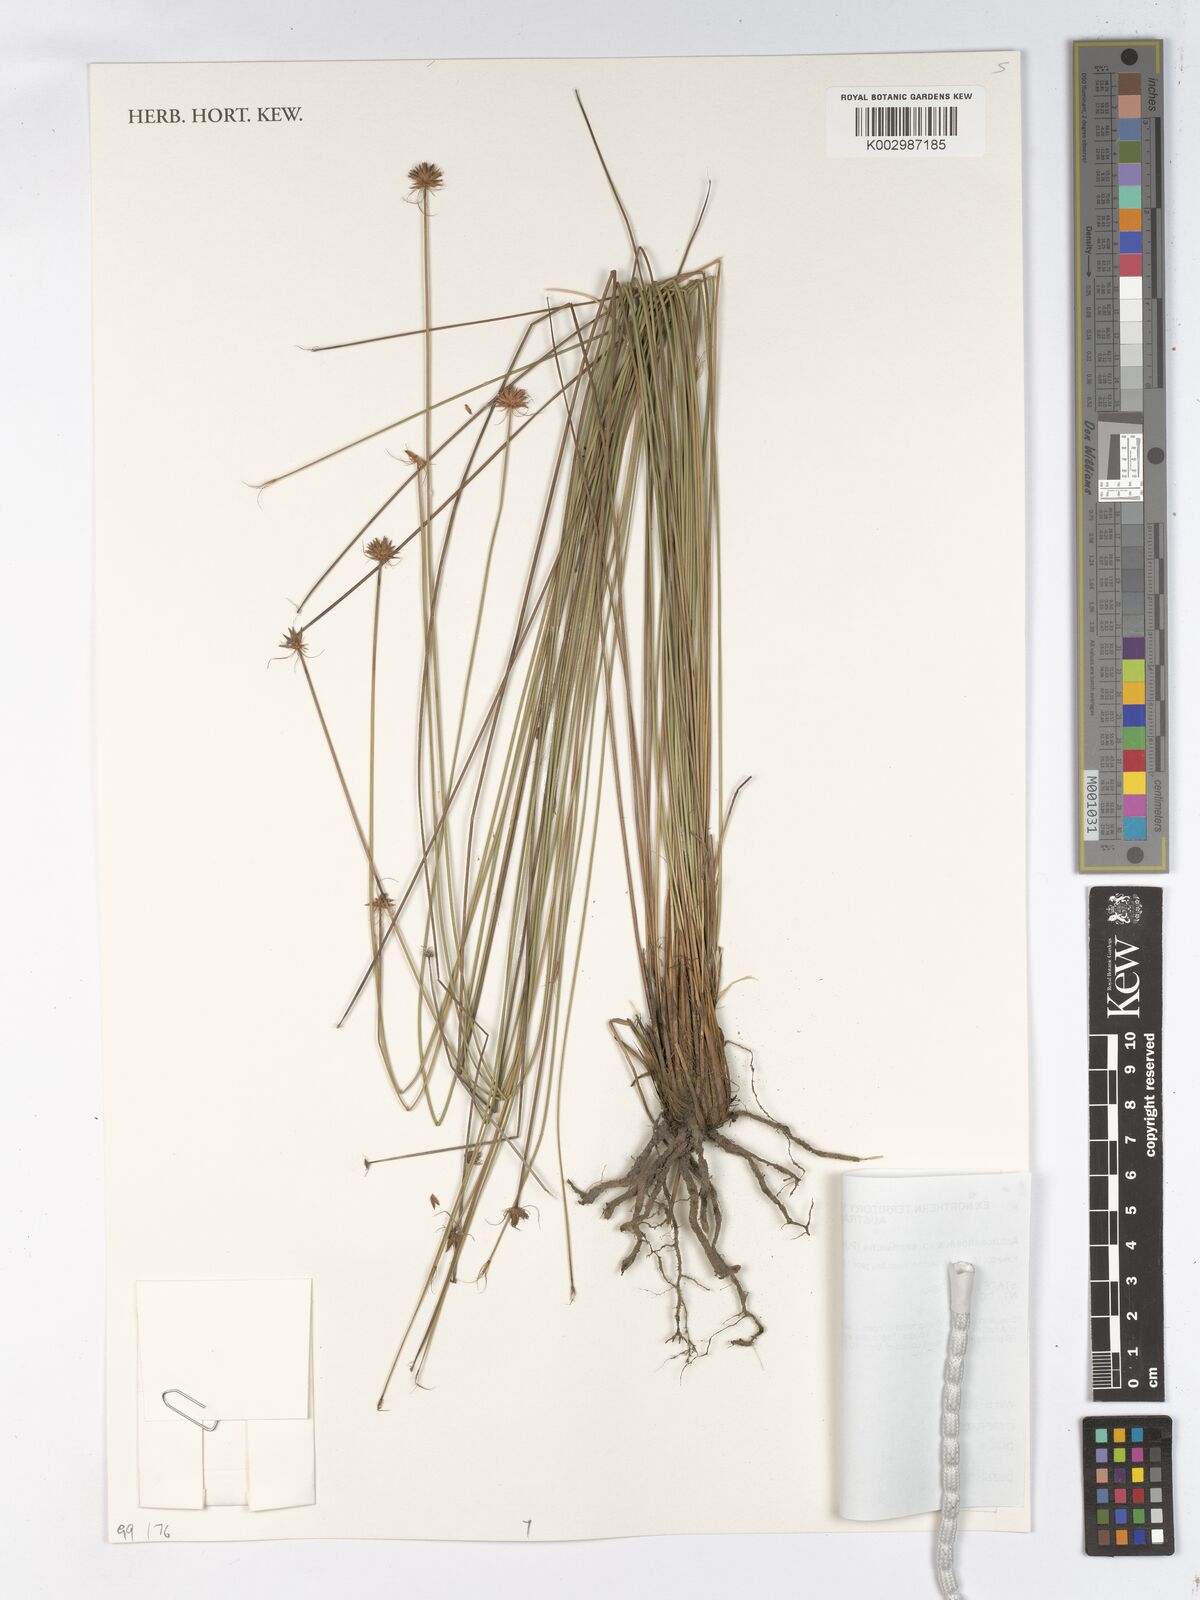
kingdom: Plantae
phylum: Tracheophyta
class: Liliopsida
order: Poales
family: Cyperaceae
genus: Actinoschoenus
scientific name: Actinoschoenus
